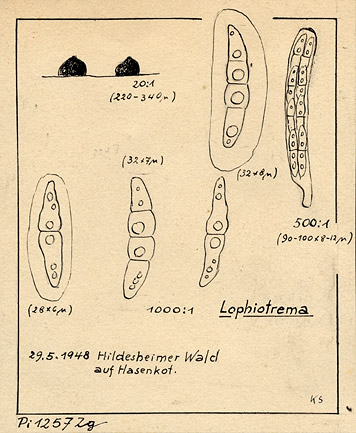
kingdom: Fungi
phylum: Ascomycota
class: Dothideomycetes
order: Pleosporales
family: Lophiostomataceae
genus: Lophiotrema
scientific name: Lophiotrema
